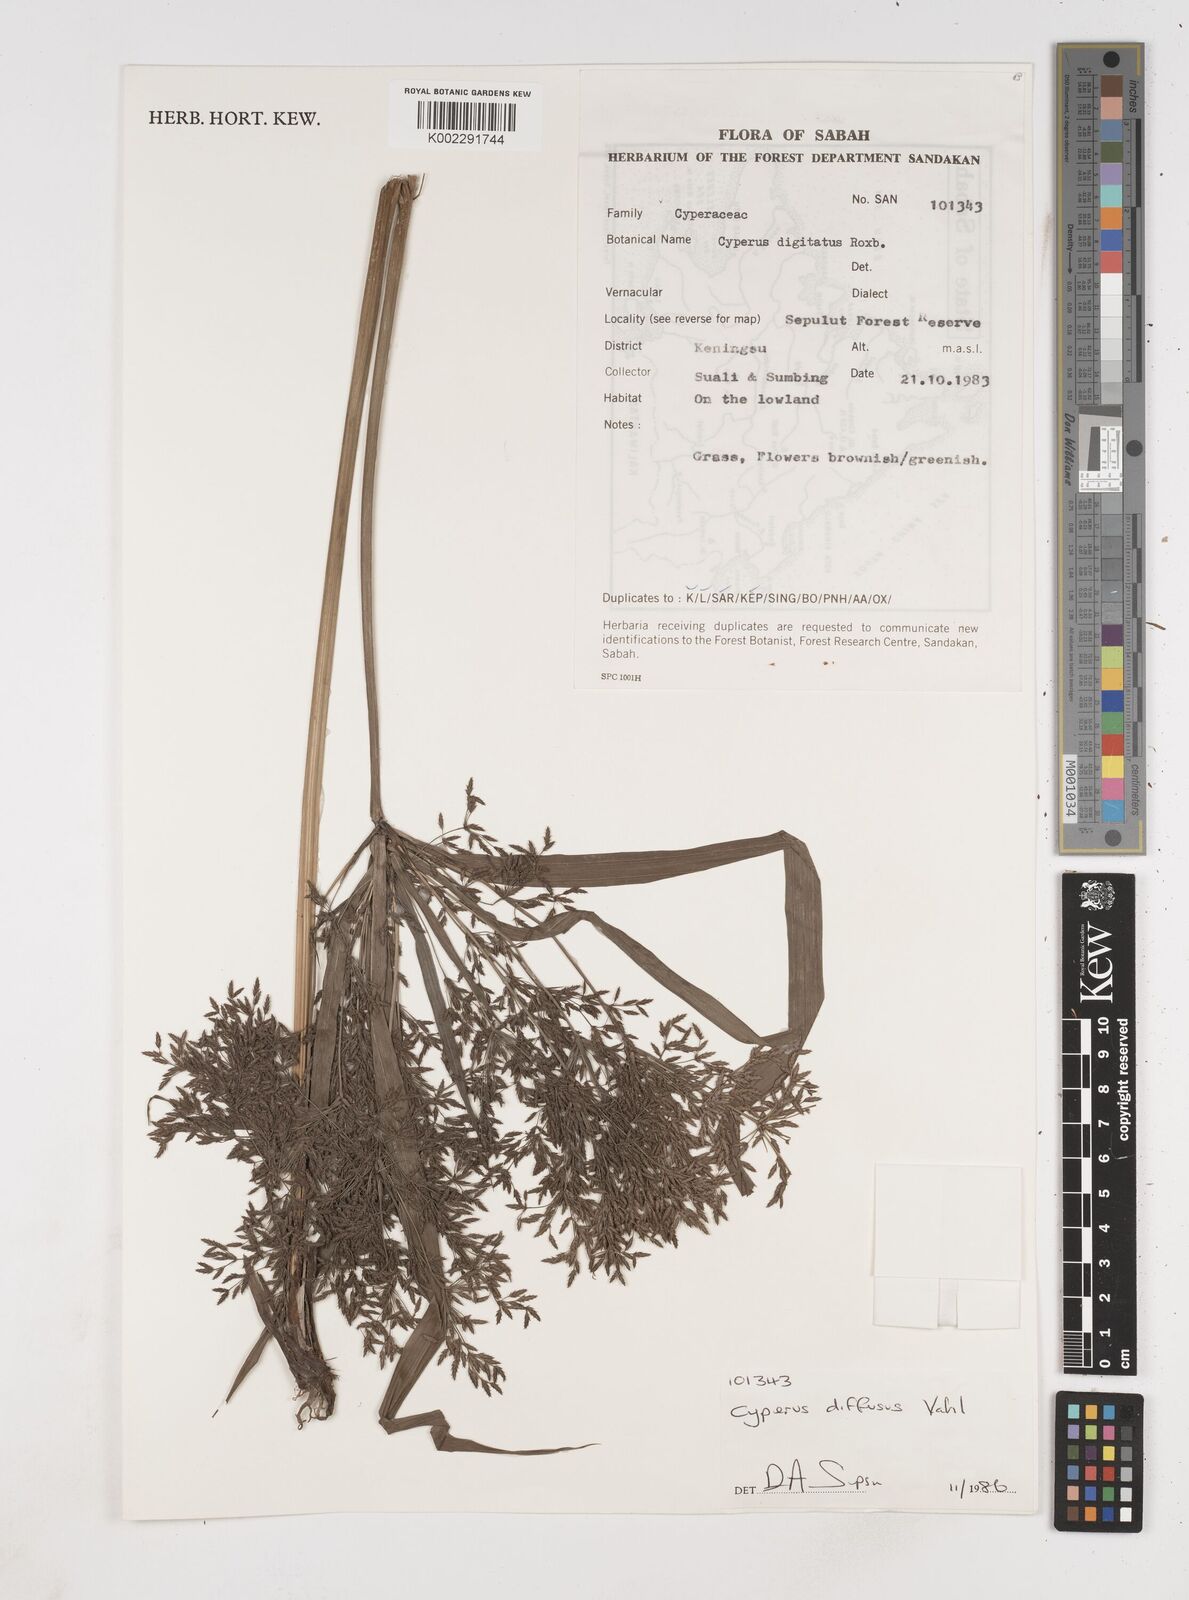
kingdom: Plantae
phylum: Tracheophyta
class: Liliopsida
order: Poales
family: Cyperaceae
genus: Cyperus
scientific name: Cyperus diffusus
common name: Dwarf umbrella grass
